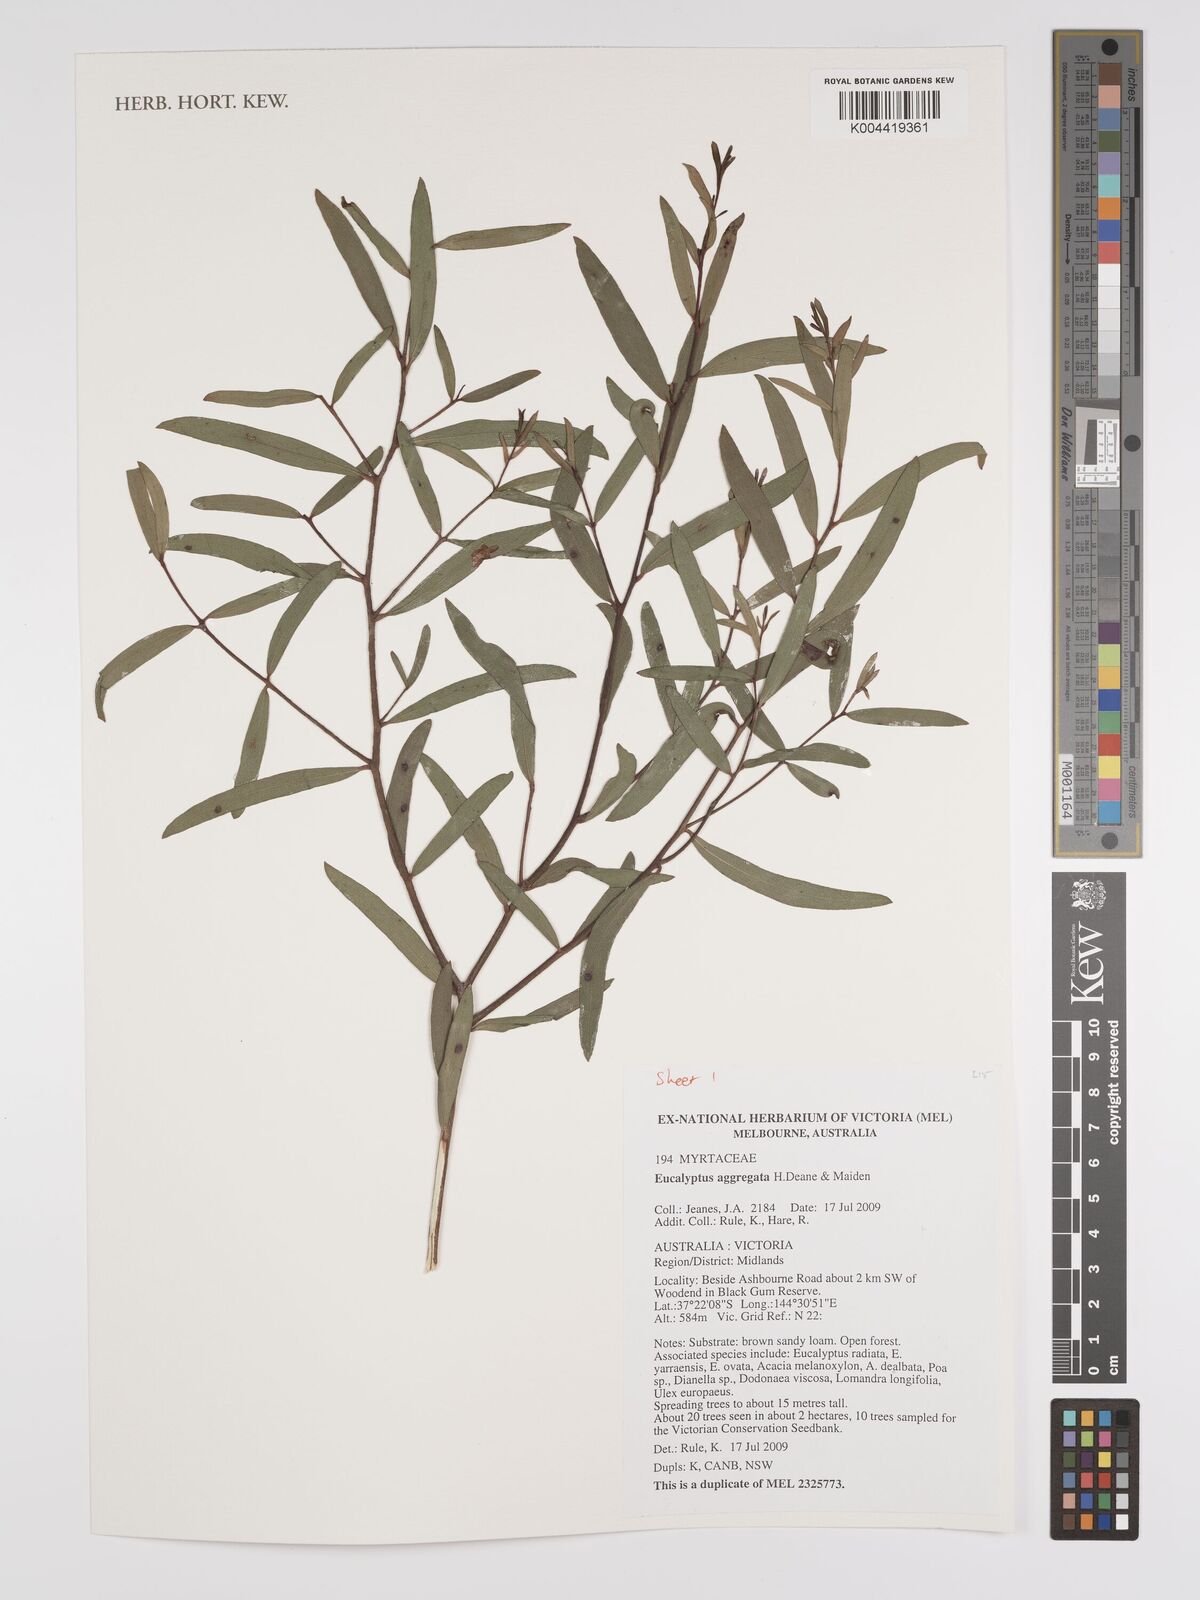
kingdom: Plantae
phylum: Tracheophyta
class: Magnoliopsida
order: Myrtales
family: Myrtaceae
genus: Eucalyptus
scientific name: Eucalyptus aggregata
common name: Black gum
